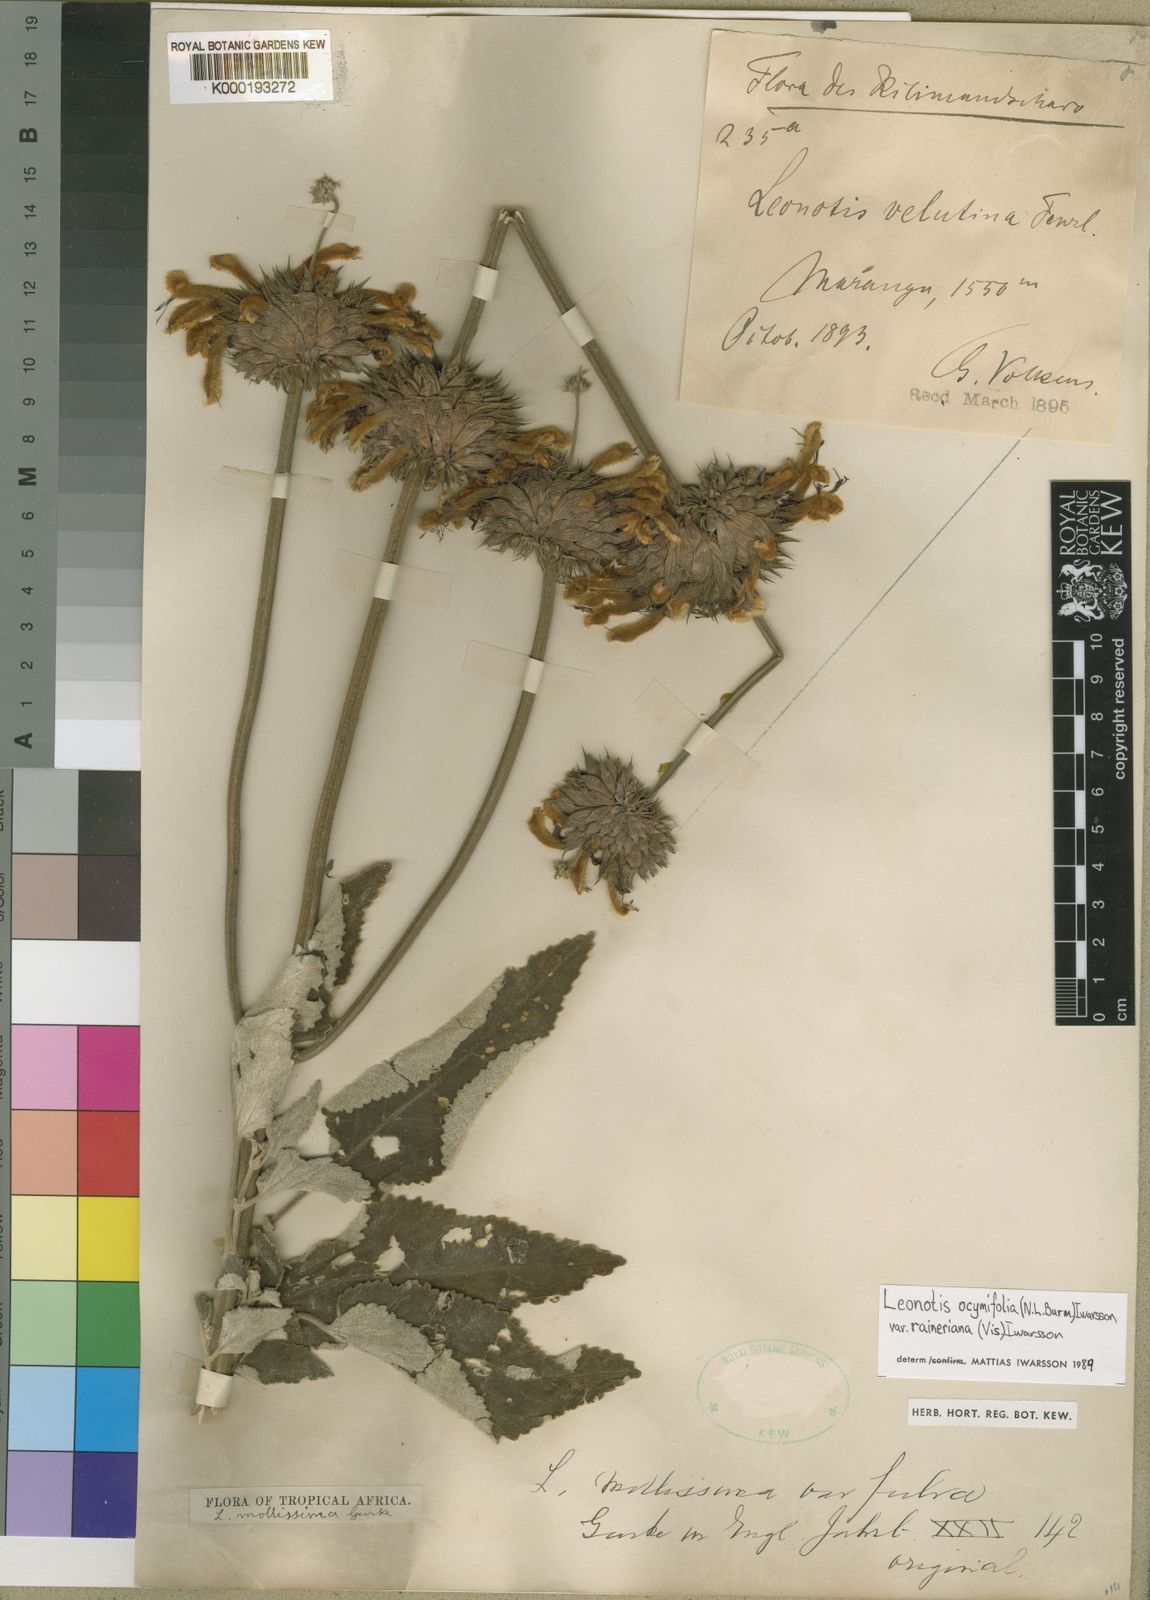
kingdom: Plantae
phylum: Tracheophyta
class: Magnoliopsida
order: Lamiales
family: Lamiaceae
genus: Leonotis
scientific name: Leonotis
